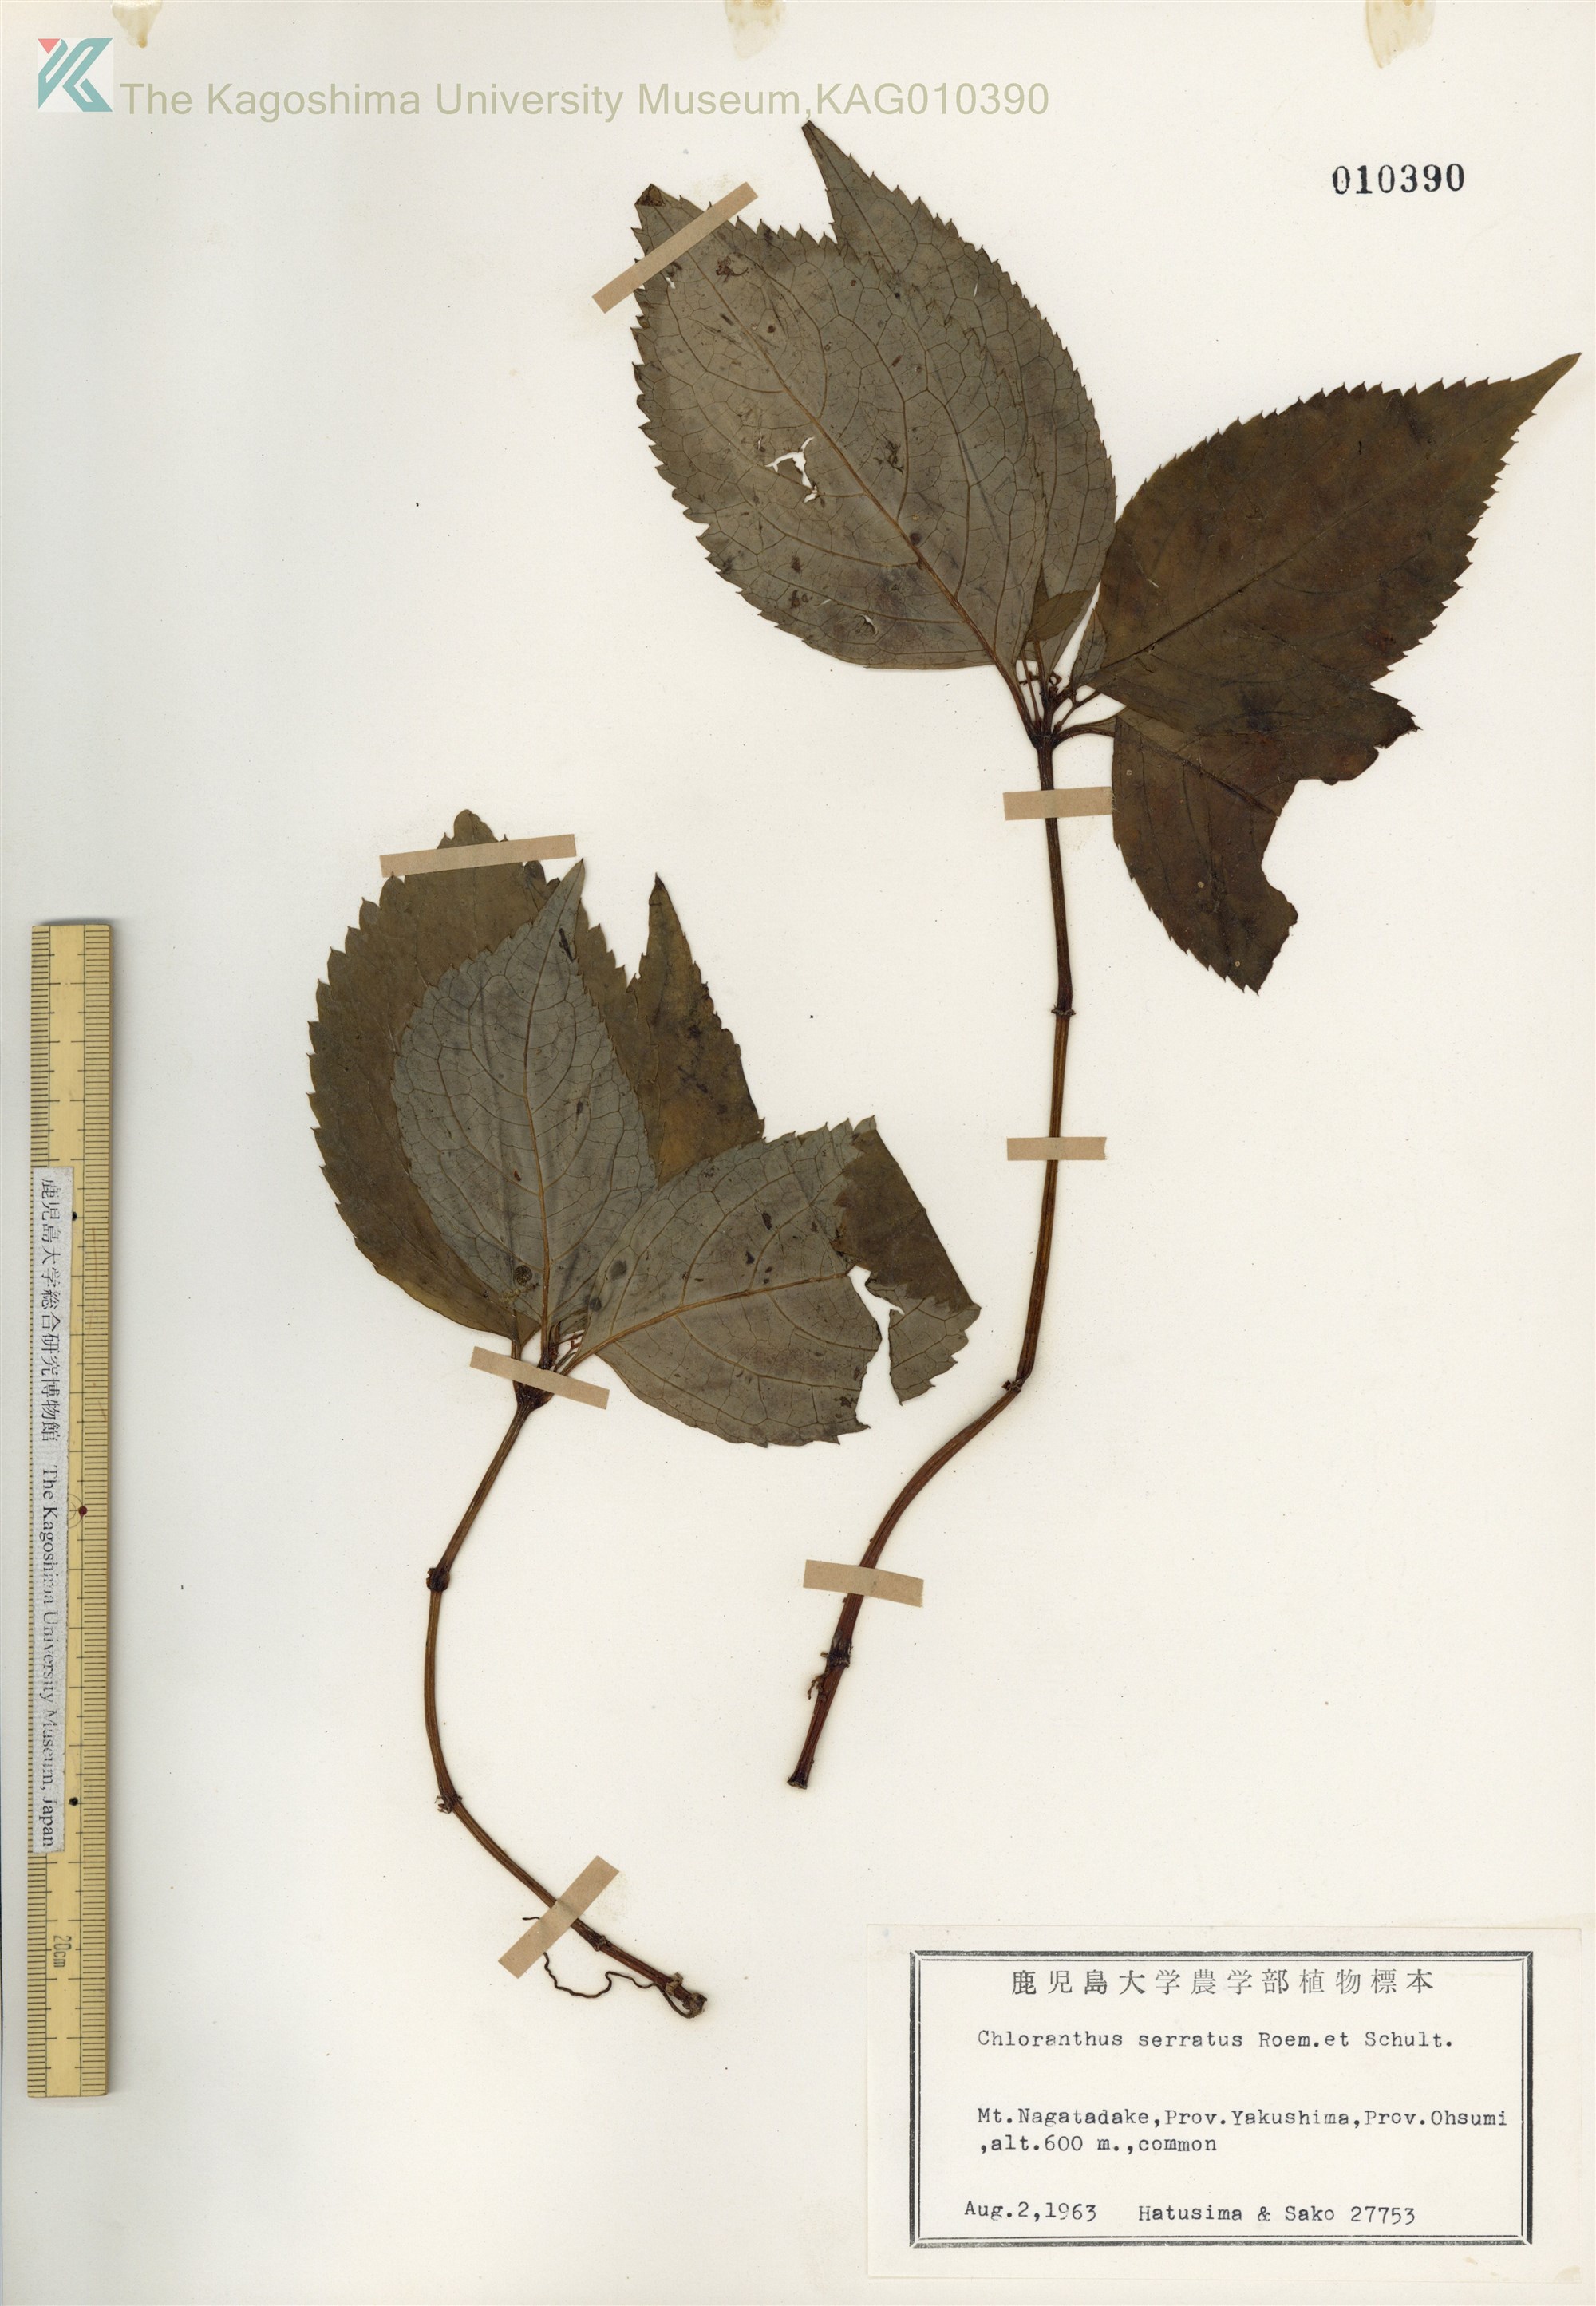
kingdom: Plantae
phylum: Tracheophyta
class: Magnoliopsida
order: Chloranthales
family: Chloranthaceae
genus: Chloranthus
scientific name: Chloranthus serratus
